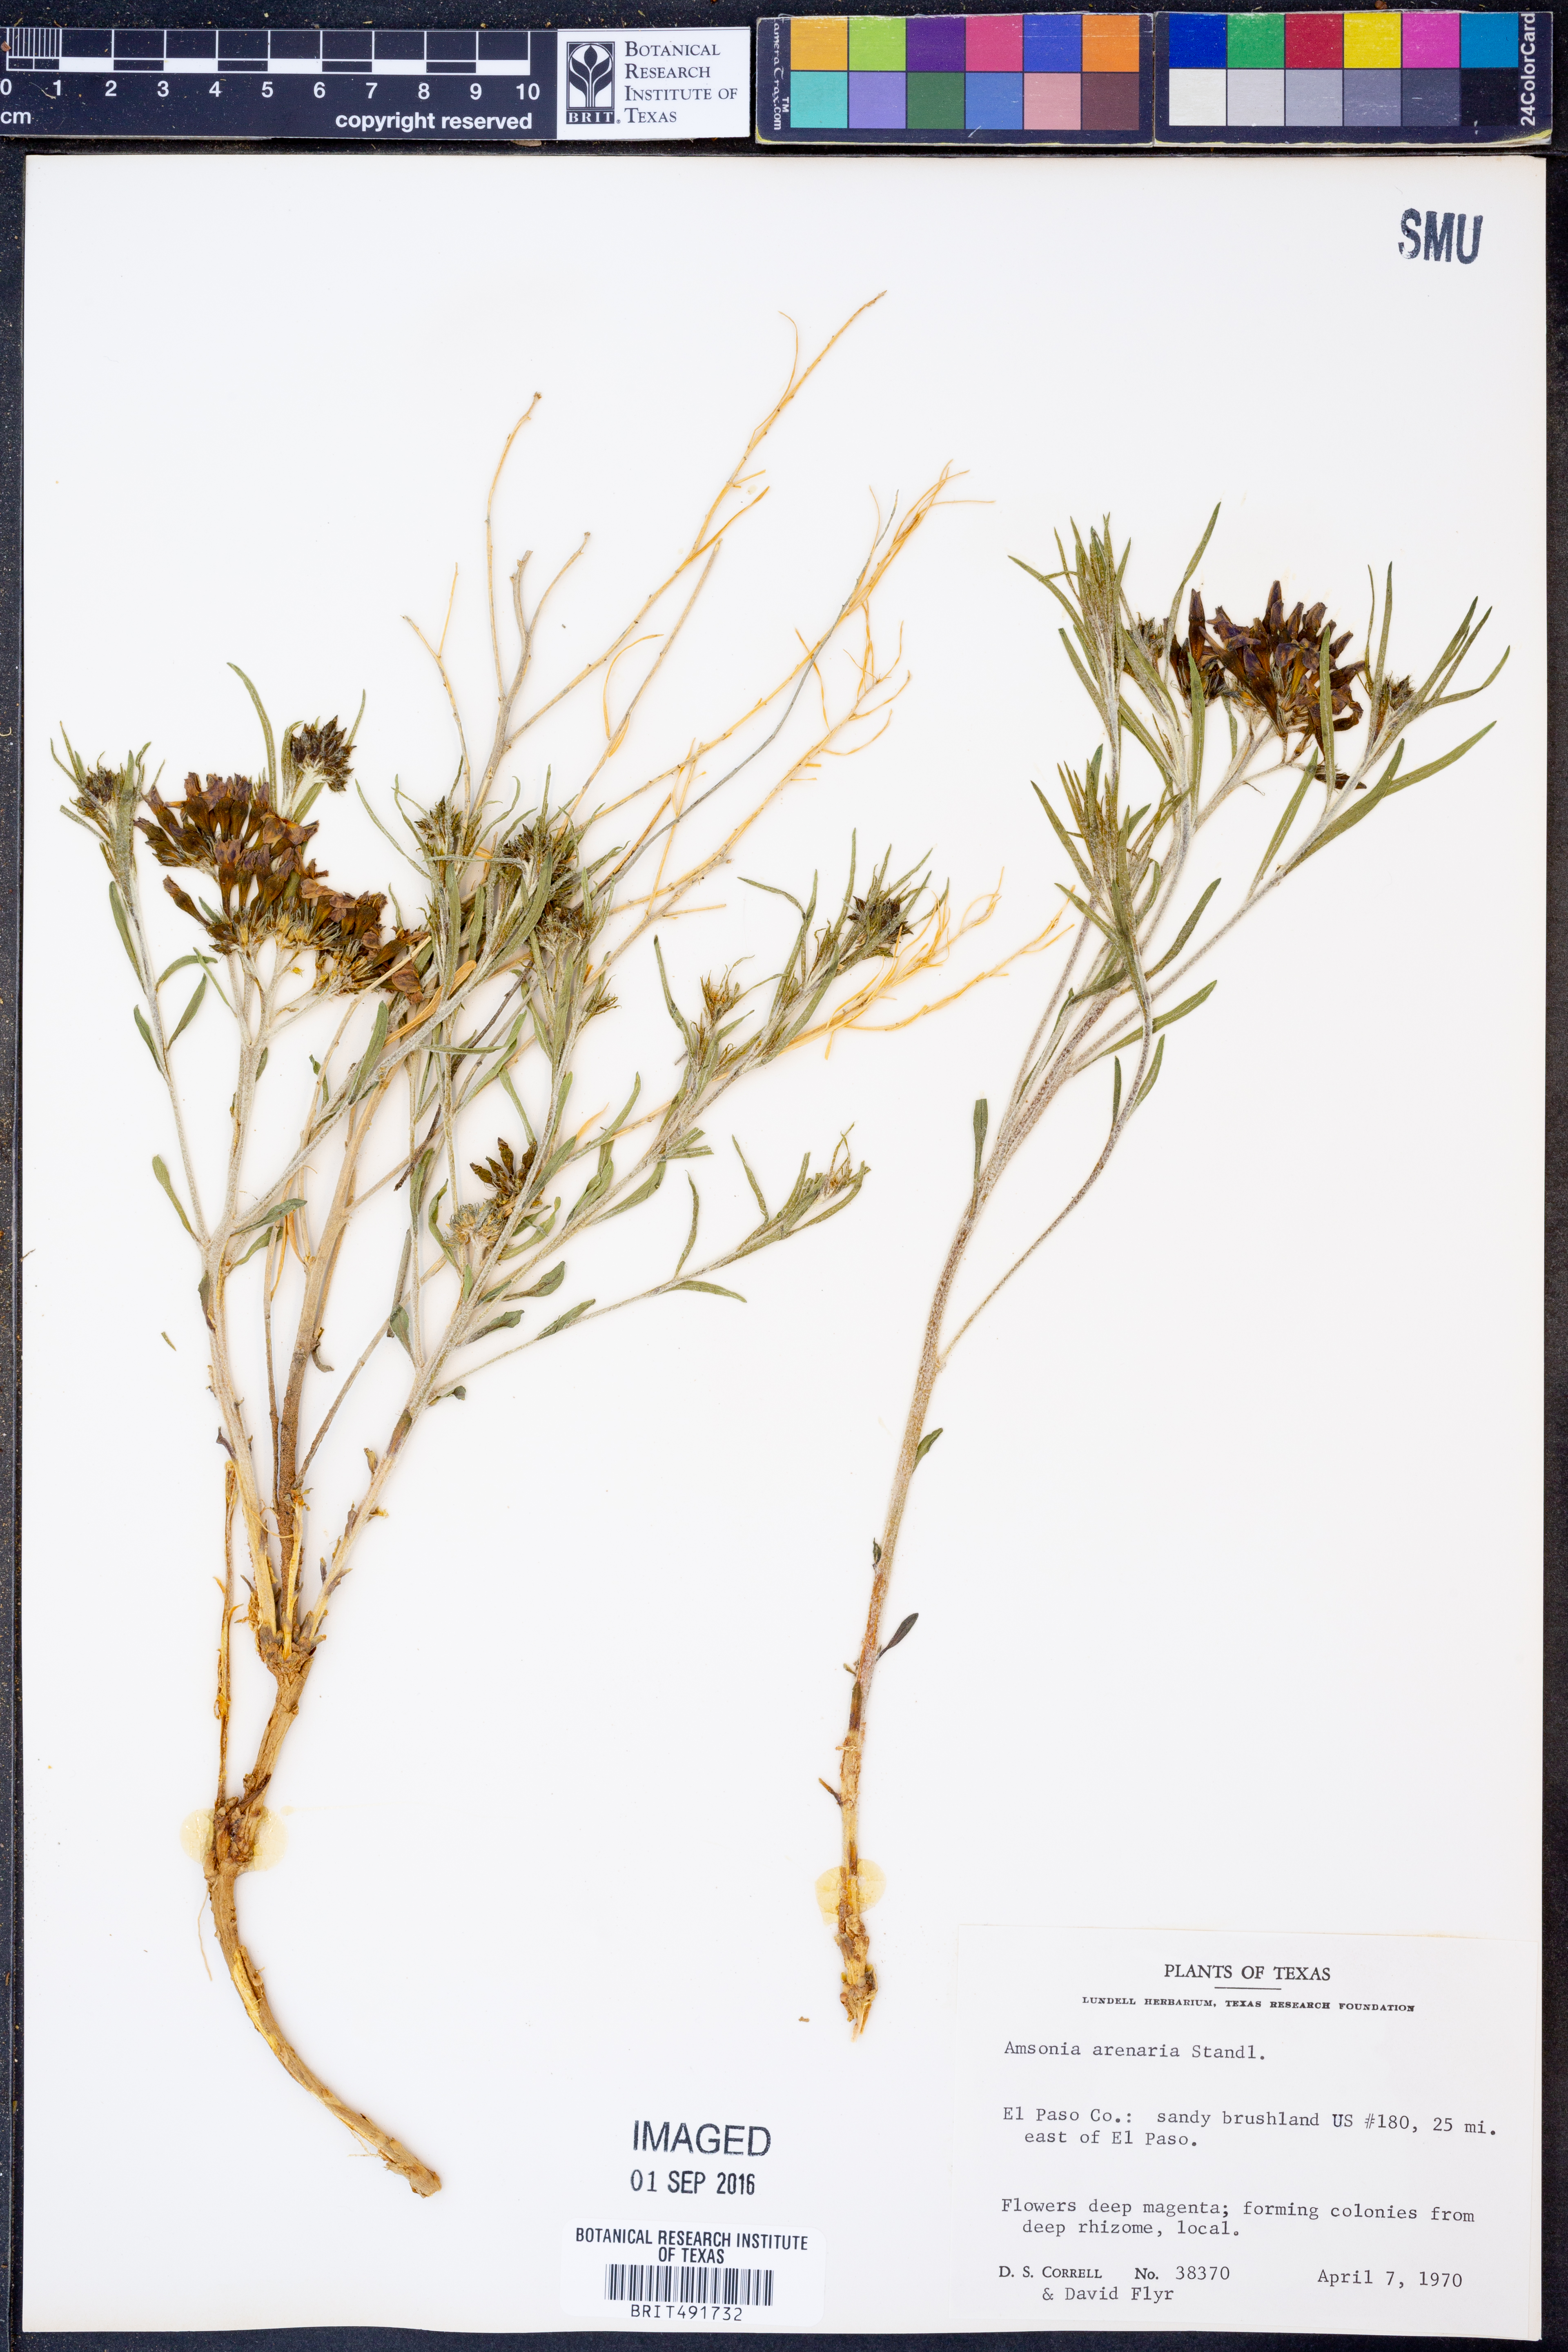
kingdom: Plantae
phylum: Tracheophyta
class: Magnoliopsida
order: Gentianales
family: Apocynaceae
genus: Amsonia
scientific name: Amsonia tomentosa
